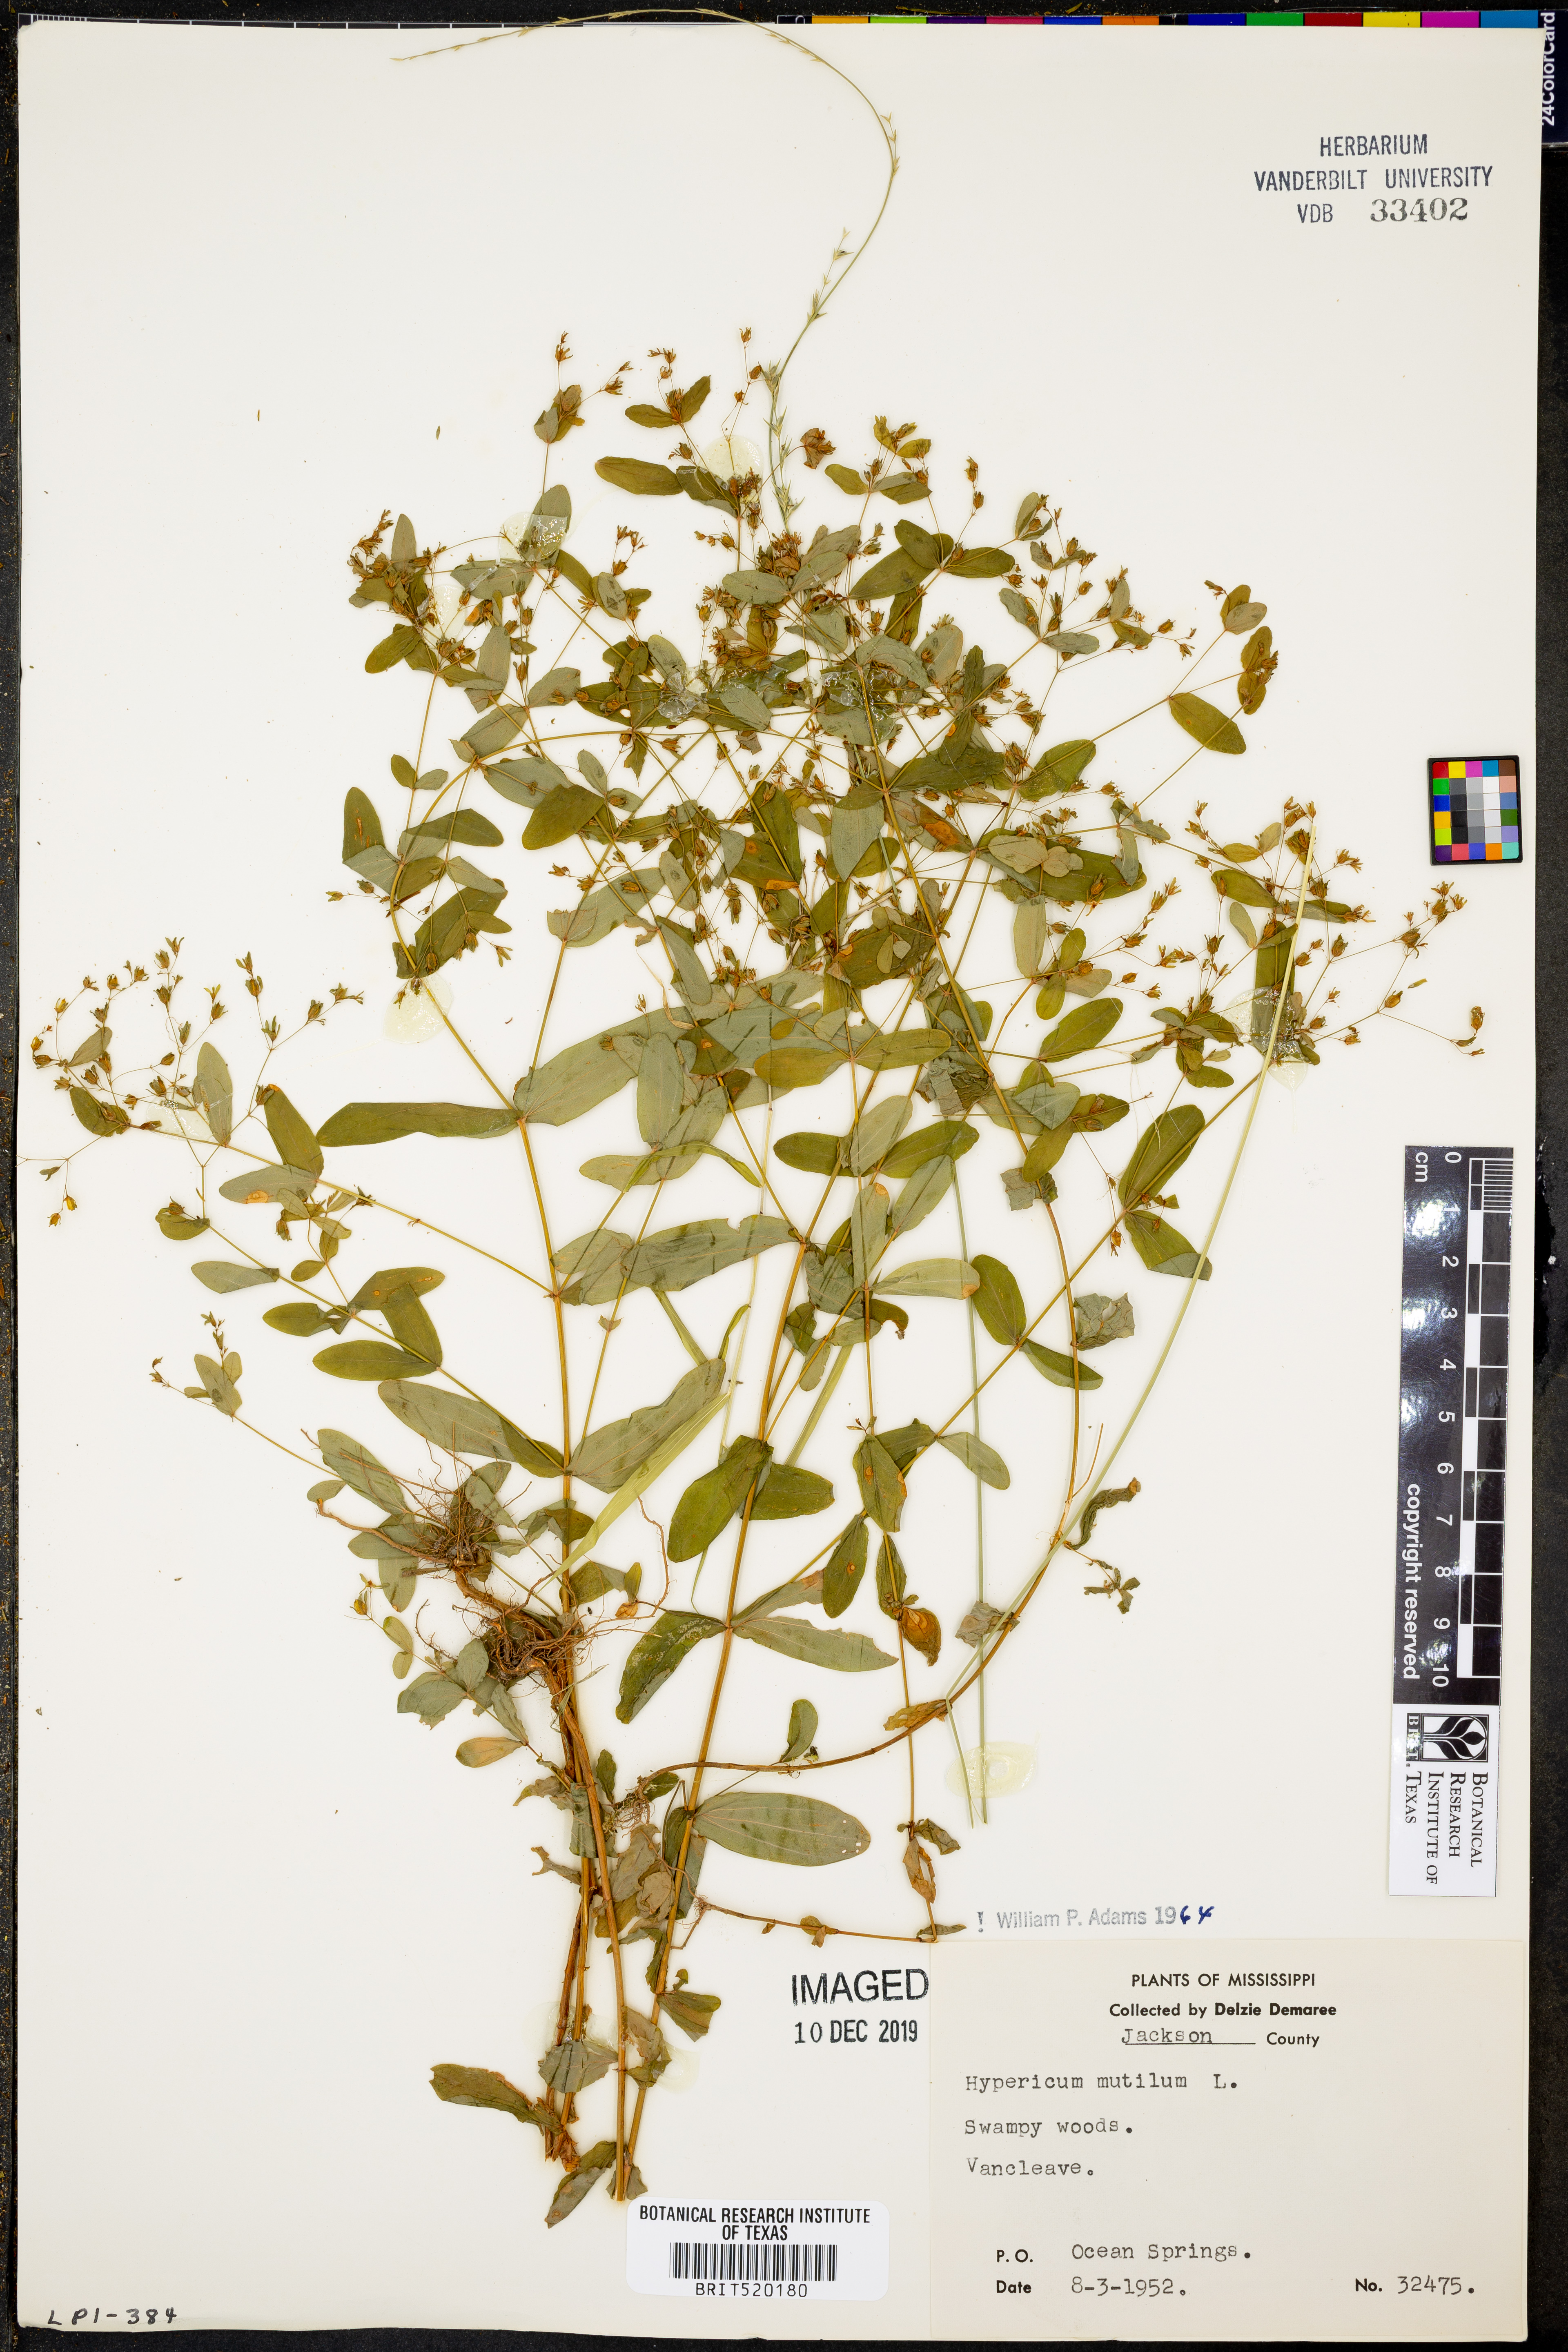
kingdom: Plantae
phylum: Tracheophyta
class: Magnoliopsida
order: Malpighiales
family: Hypericaceae
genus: Hypericum
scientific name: Hypericum mutilum
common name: Dwarf st. john's-wort
